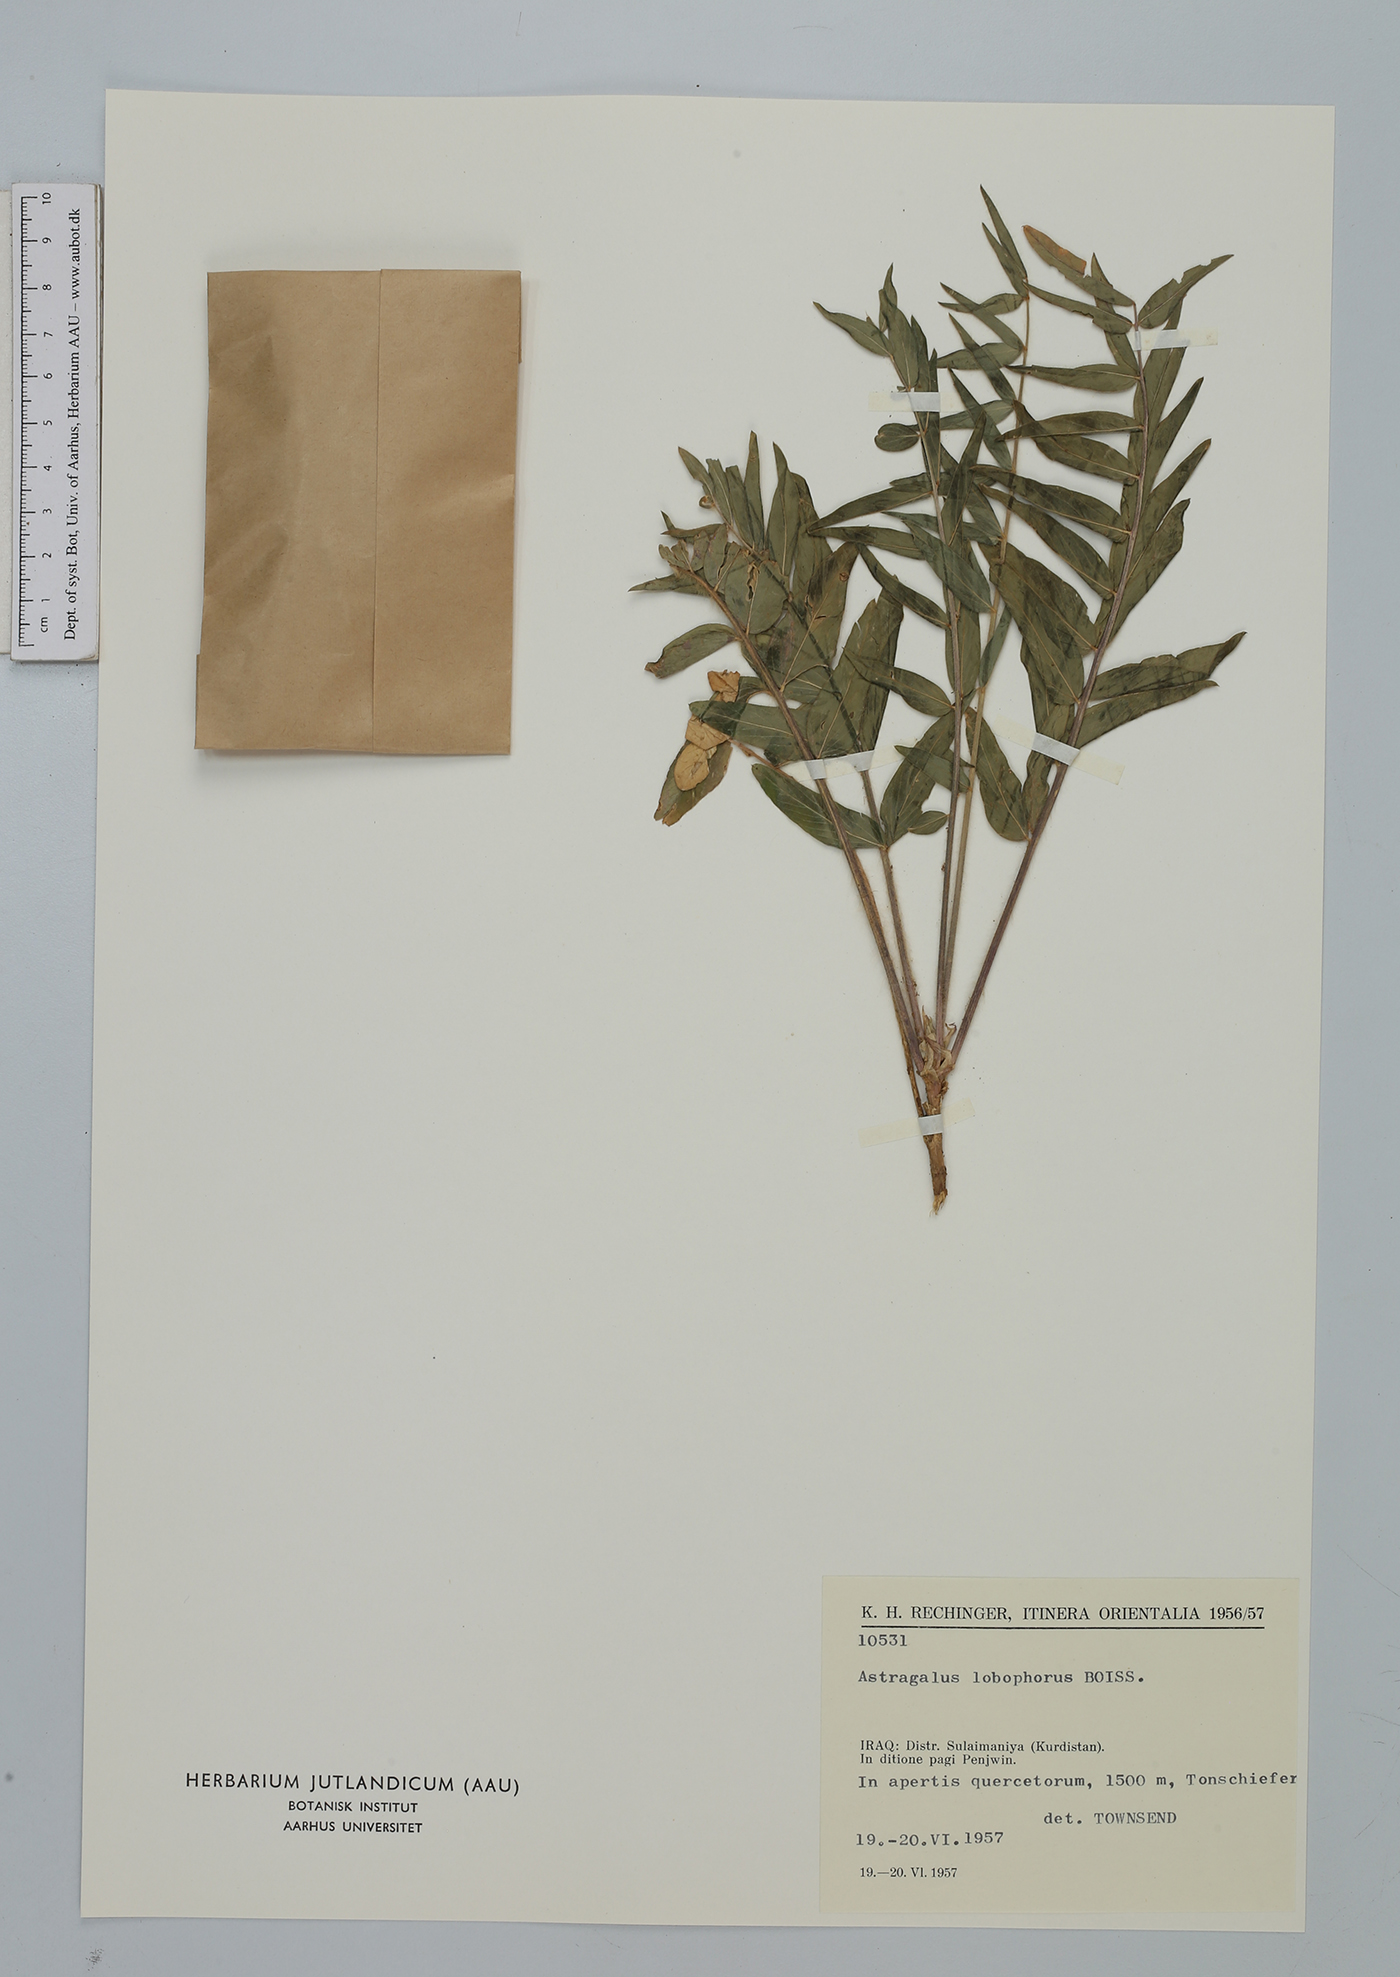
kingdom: Plantae
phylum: Tracheophyta
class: Magnoliopsida
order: Fabales
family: Fabaceae
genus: Astragalus
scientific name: Astragalus lobophorus
